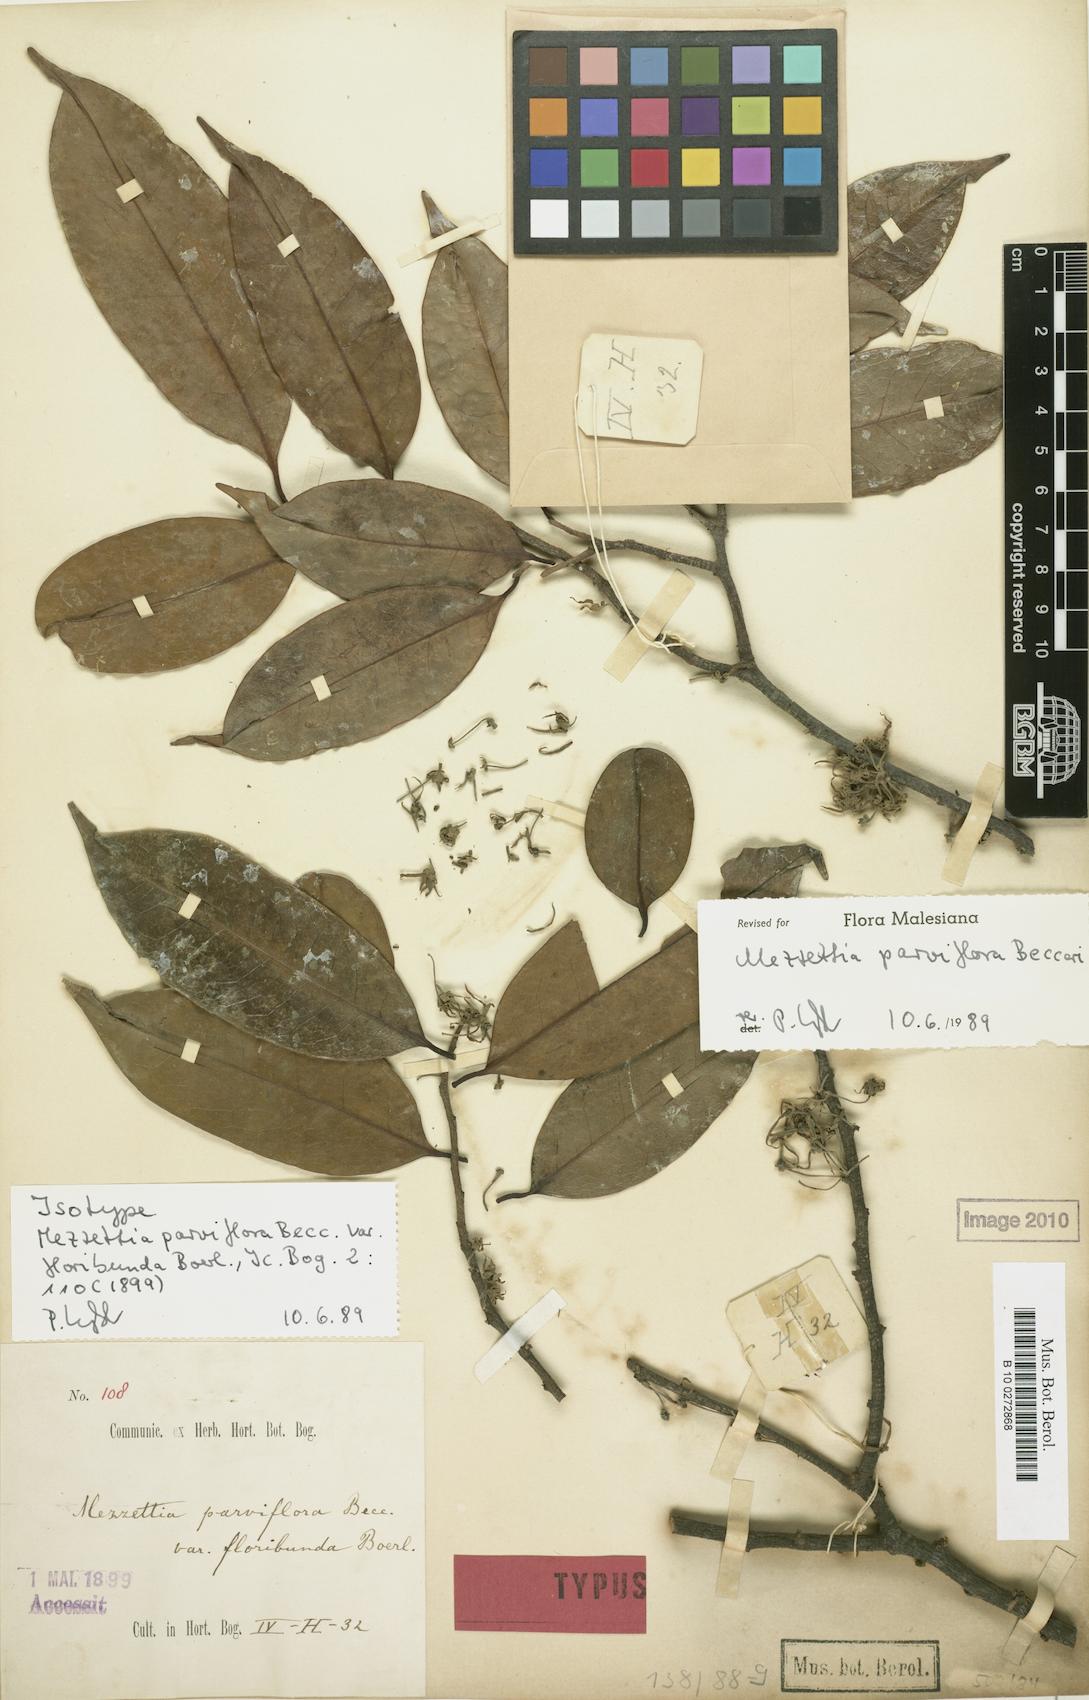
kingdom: Plantae
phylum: Tracheophyta
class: Magnoliopsida
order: Magnoliales
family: Annonaceae
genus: Mezzettia
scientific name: Mezzettia parviflora
